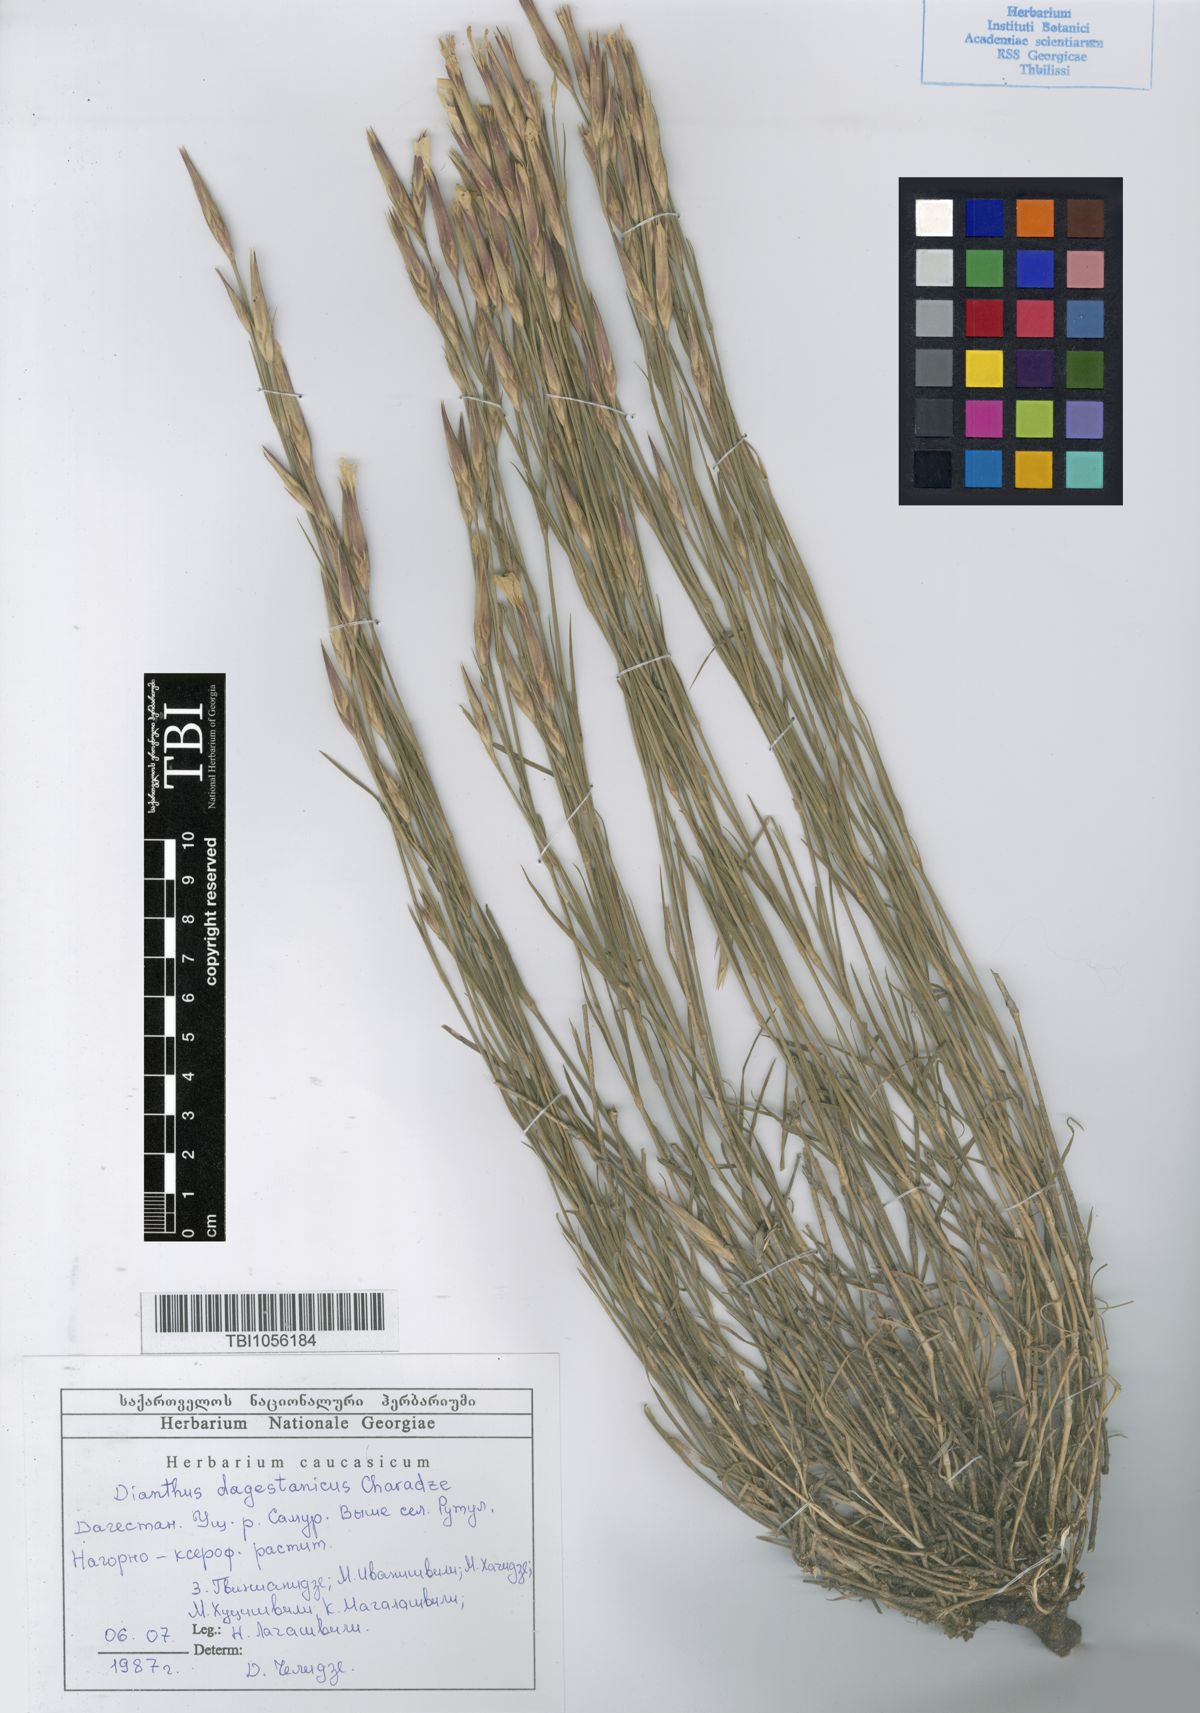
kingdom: Plantae
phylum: Tracheophyta
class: Magnoliopsida
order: Caryophyllales
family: Caryophyllaceae
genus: Dianthus
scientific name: Dianthus daghestanicus
